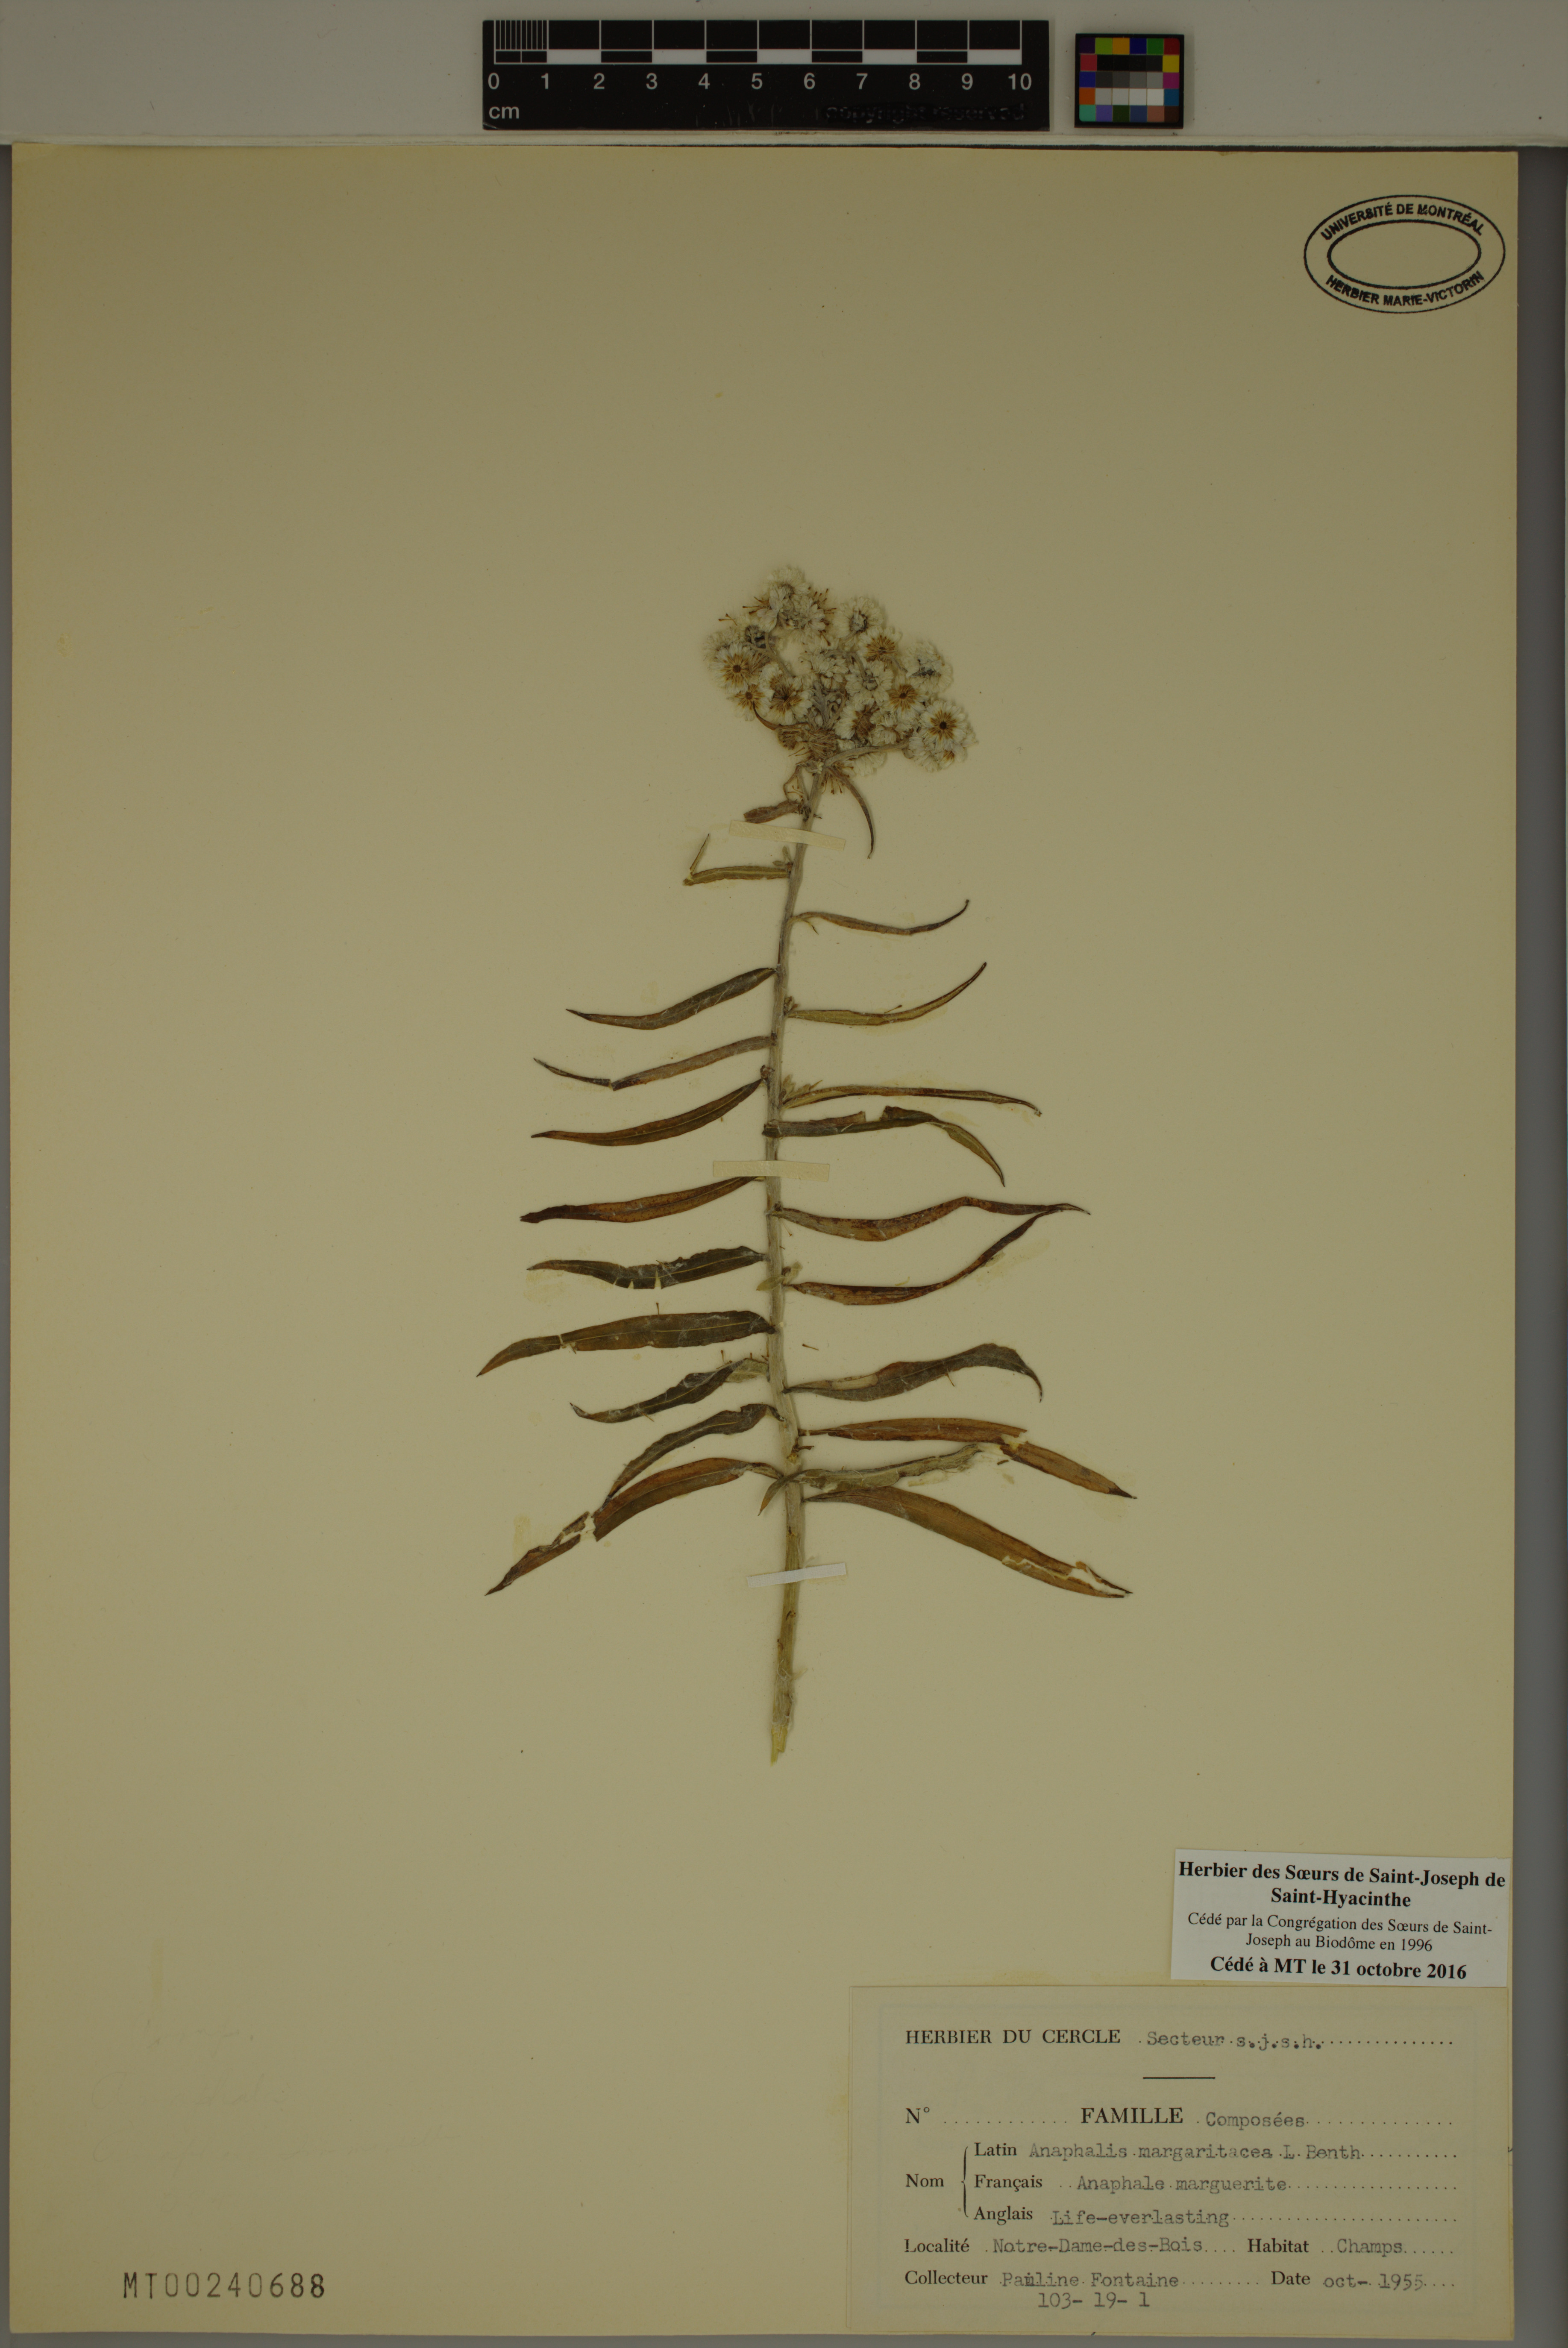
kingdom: Plantae
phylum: Tracheophyta
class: Magnoliopsida
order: Asterales
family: Asteraceae
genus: Anaphalis
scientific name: Anaphalis margaritacea
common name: Pearly everlasting
